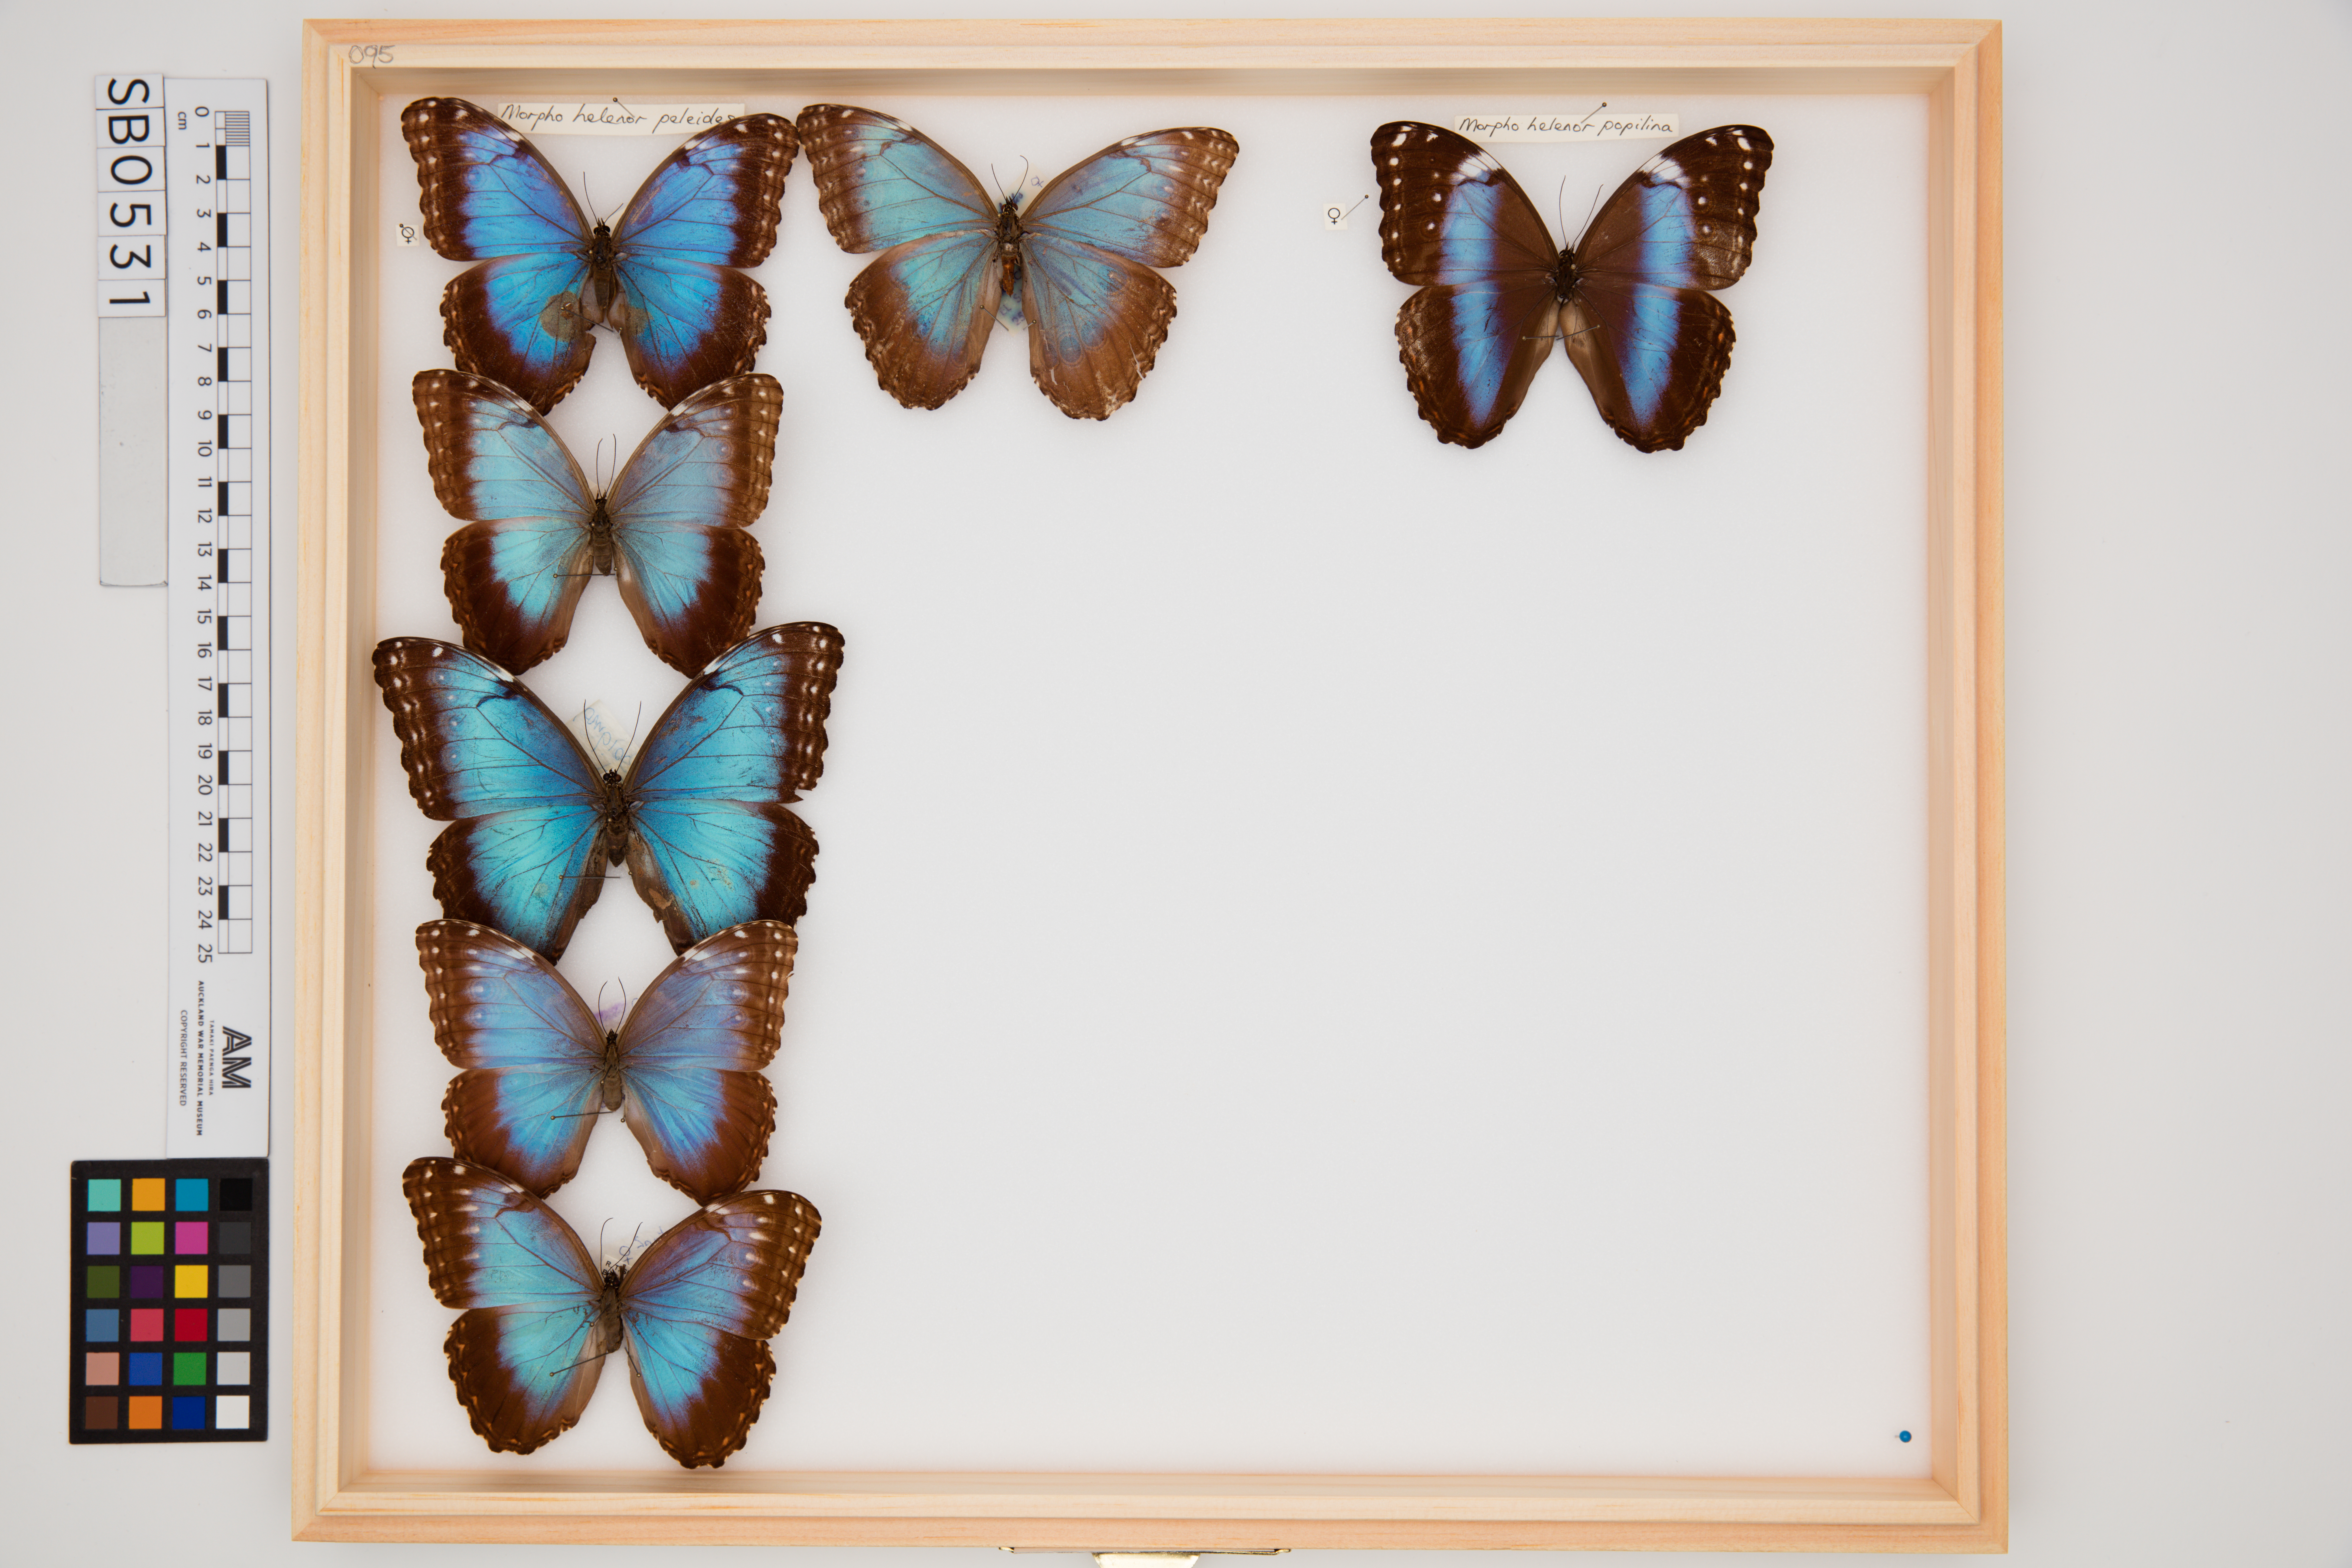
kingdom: Animalia
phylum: Arthropoda
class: Insecta
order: Lepidoptera
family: Nymphalidae
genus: Morpho
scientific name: Morpho helenor
